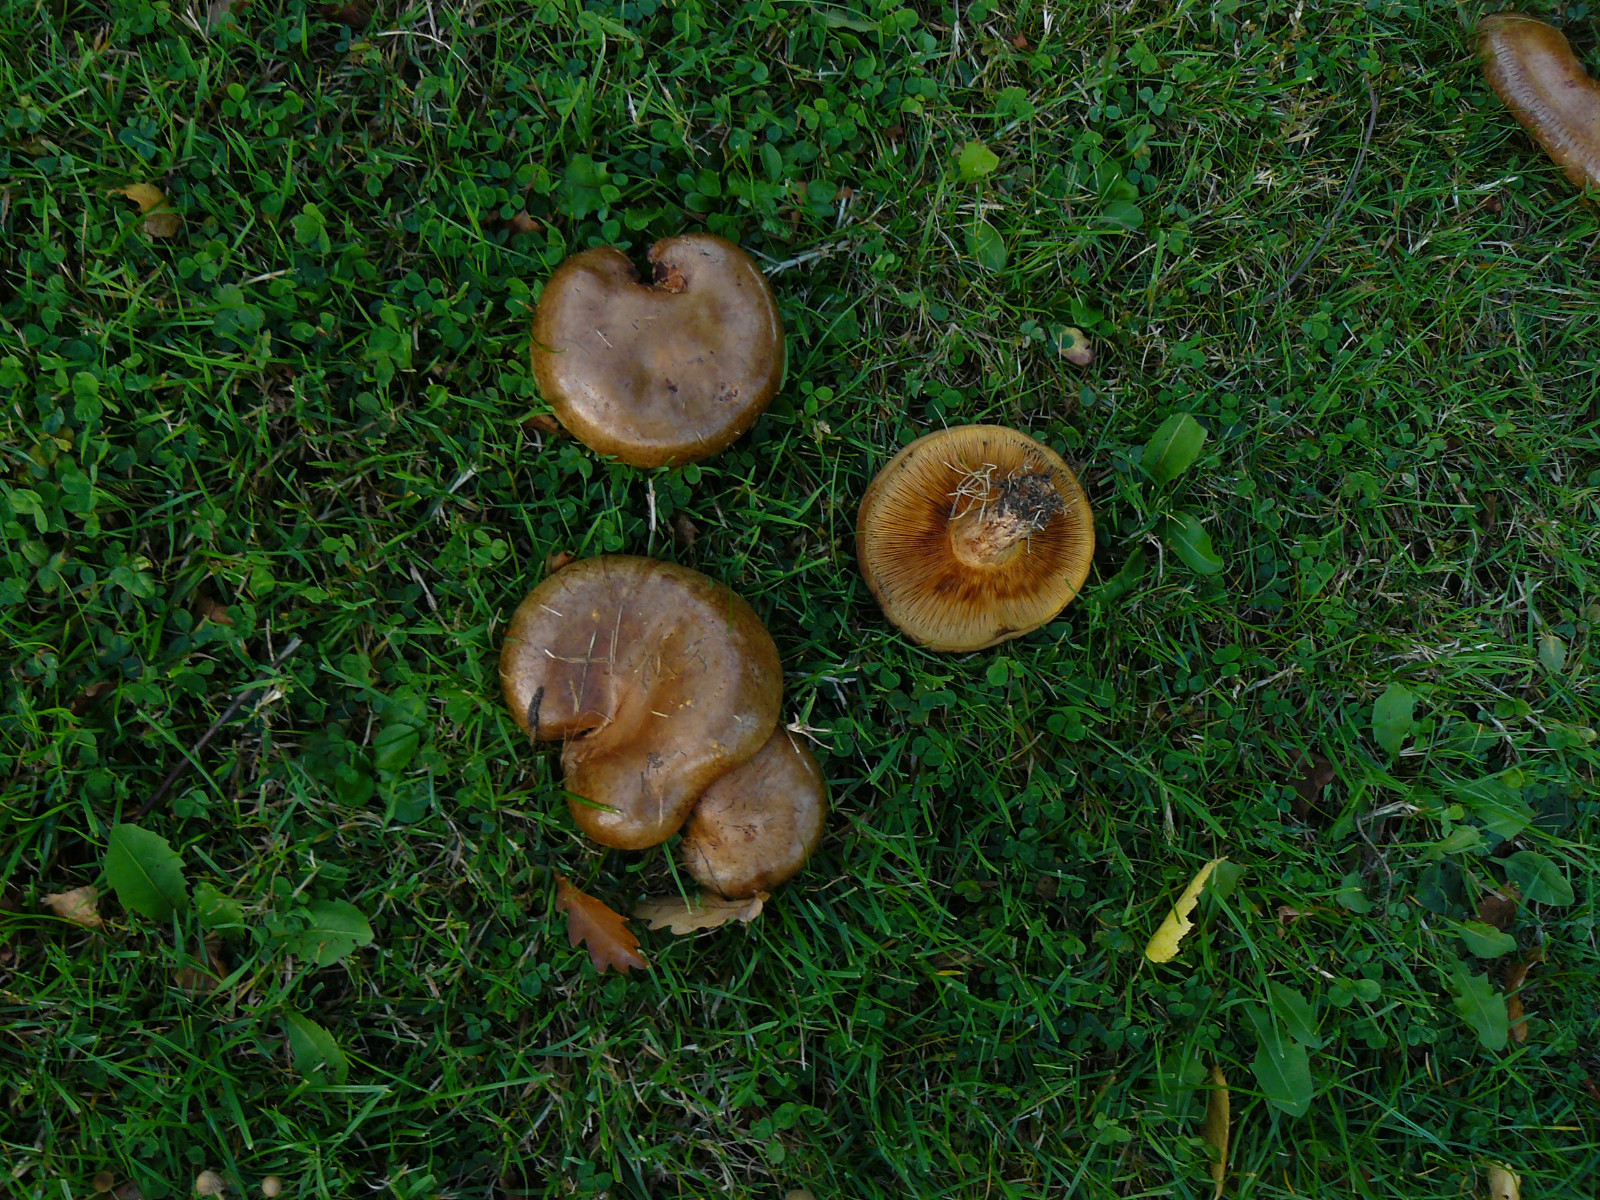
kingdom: Fungi
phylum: Basidiomycota
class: Agaricomycetes
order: Boletales
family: Paxillaceae
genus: Paxillus
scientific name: Paxillus involutus
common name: almindelig netbladhat
